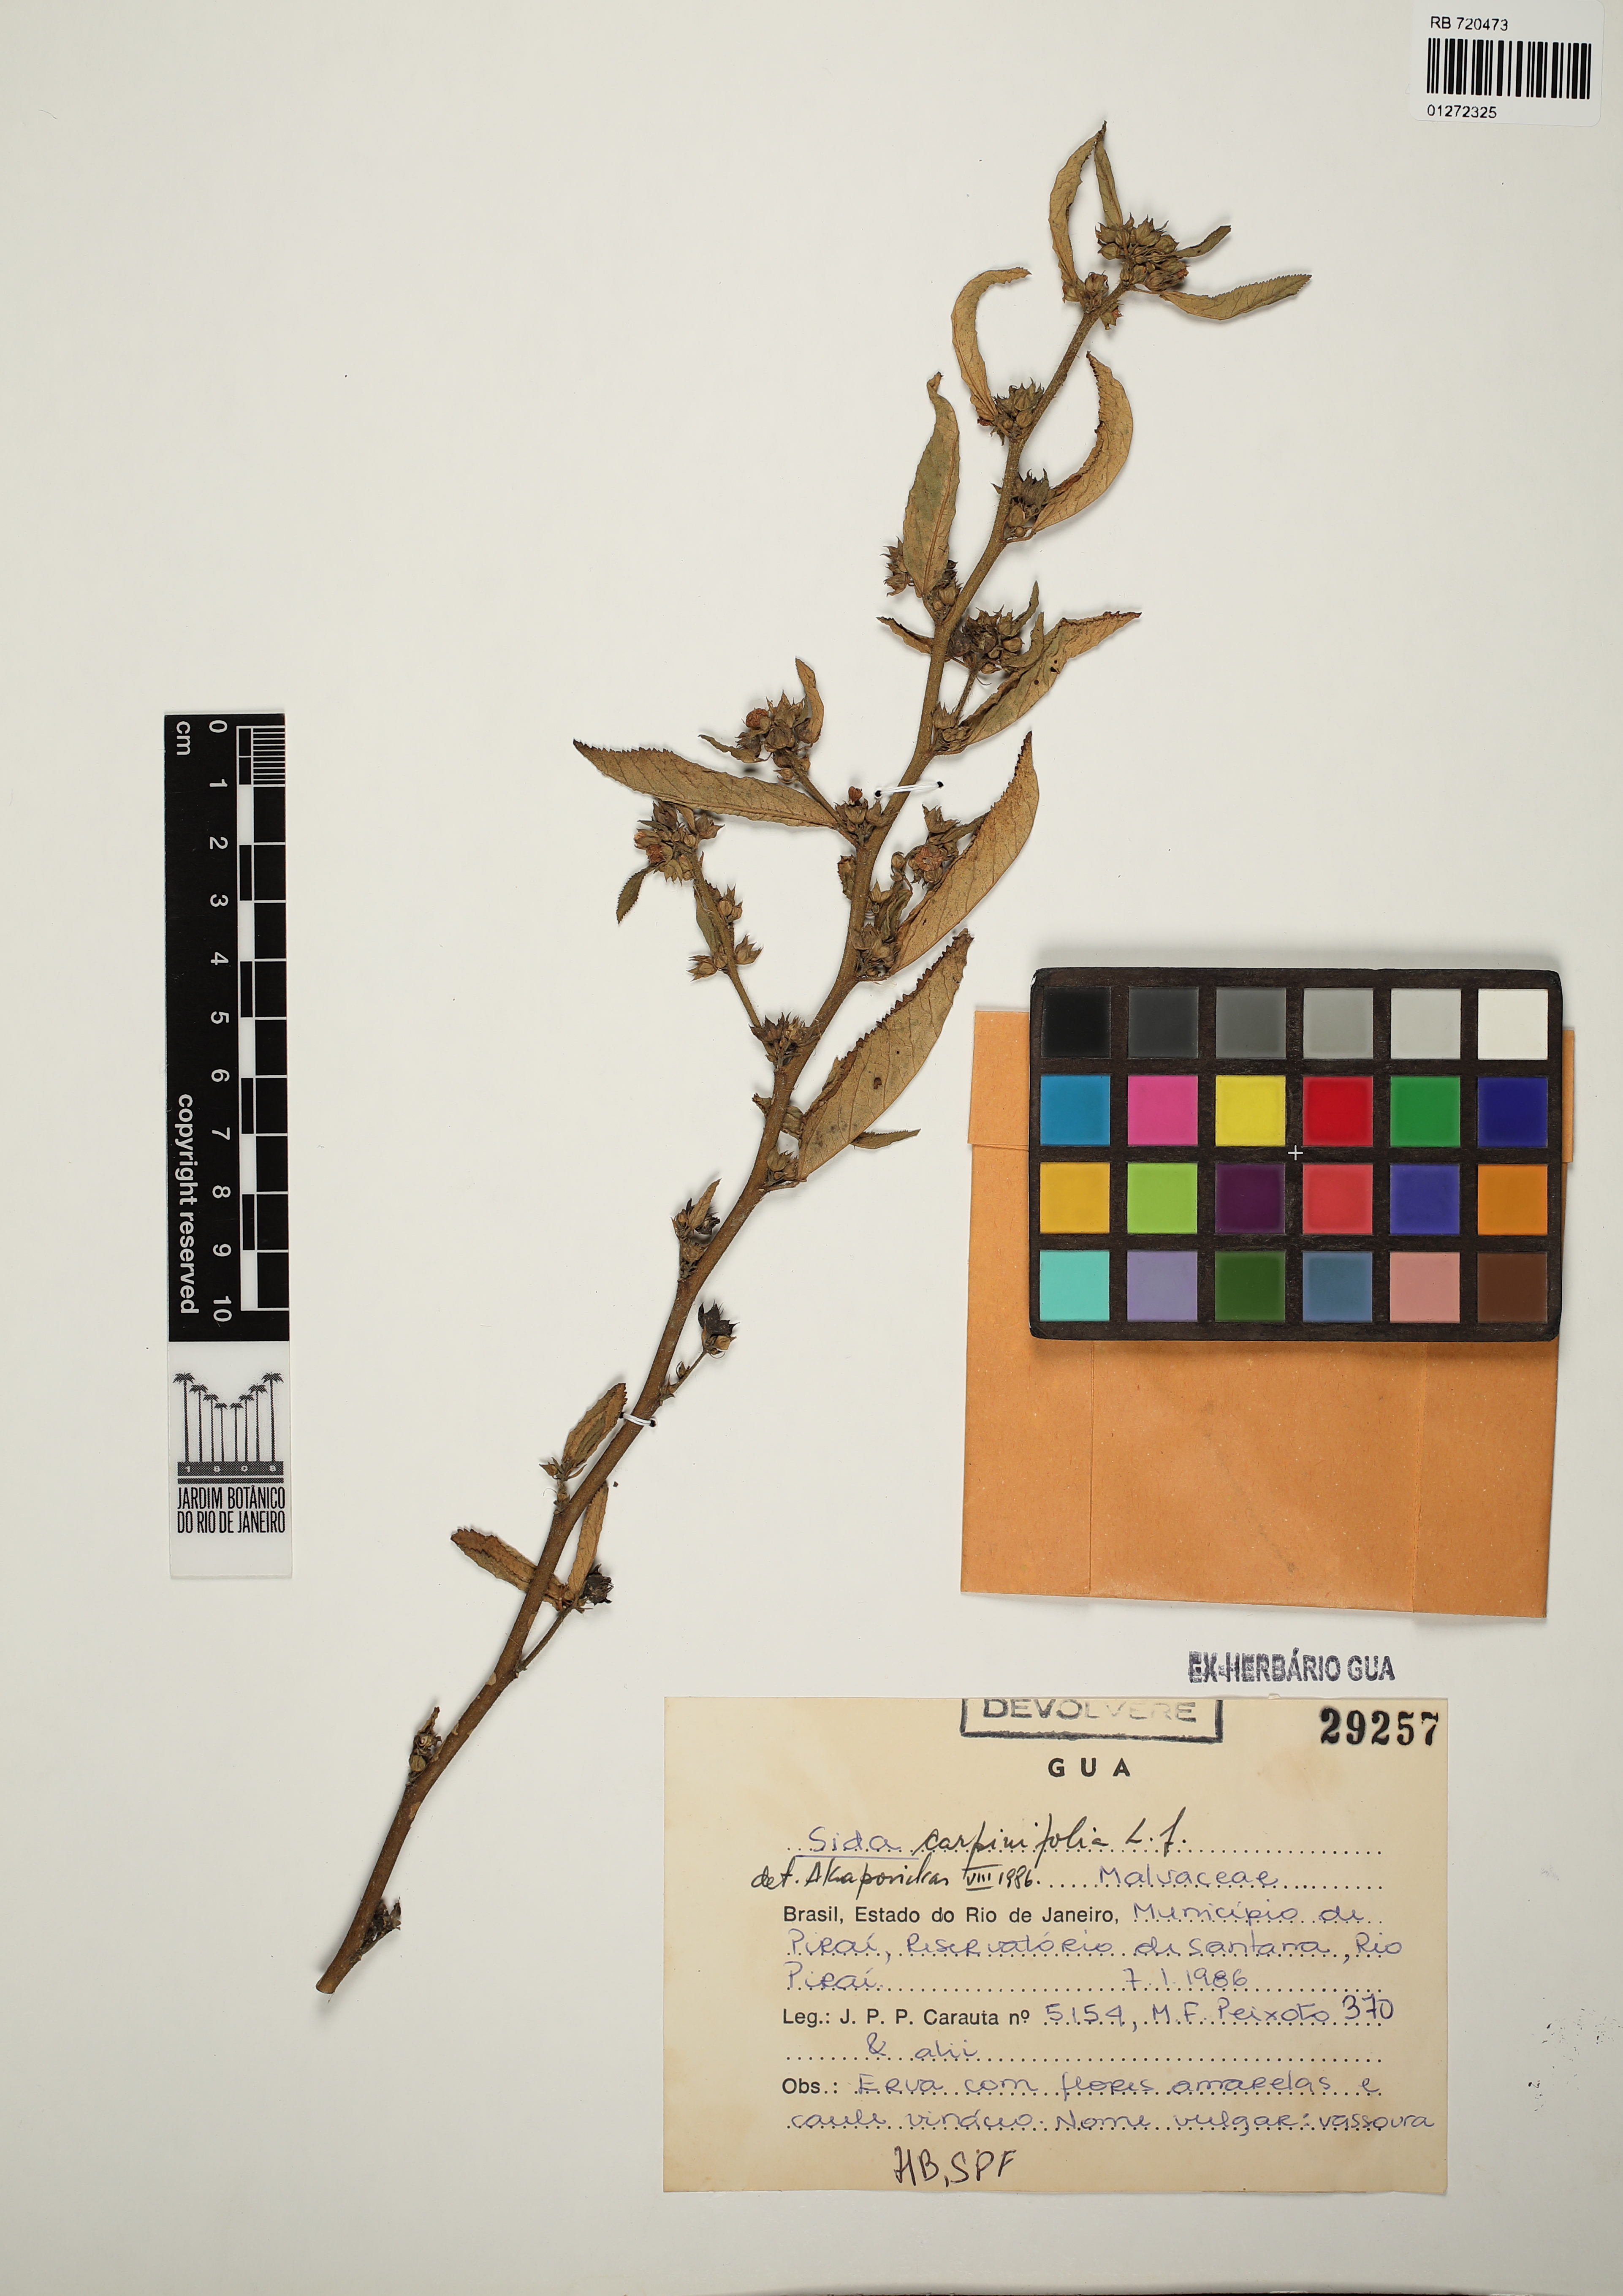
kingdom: Plantae
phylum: Tracheophyta
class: Magnoliopsida
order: Malvales
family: Malvaceae
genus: Sida
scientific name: Sida rhombifolia
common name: Queensland-hemp
